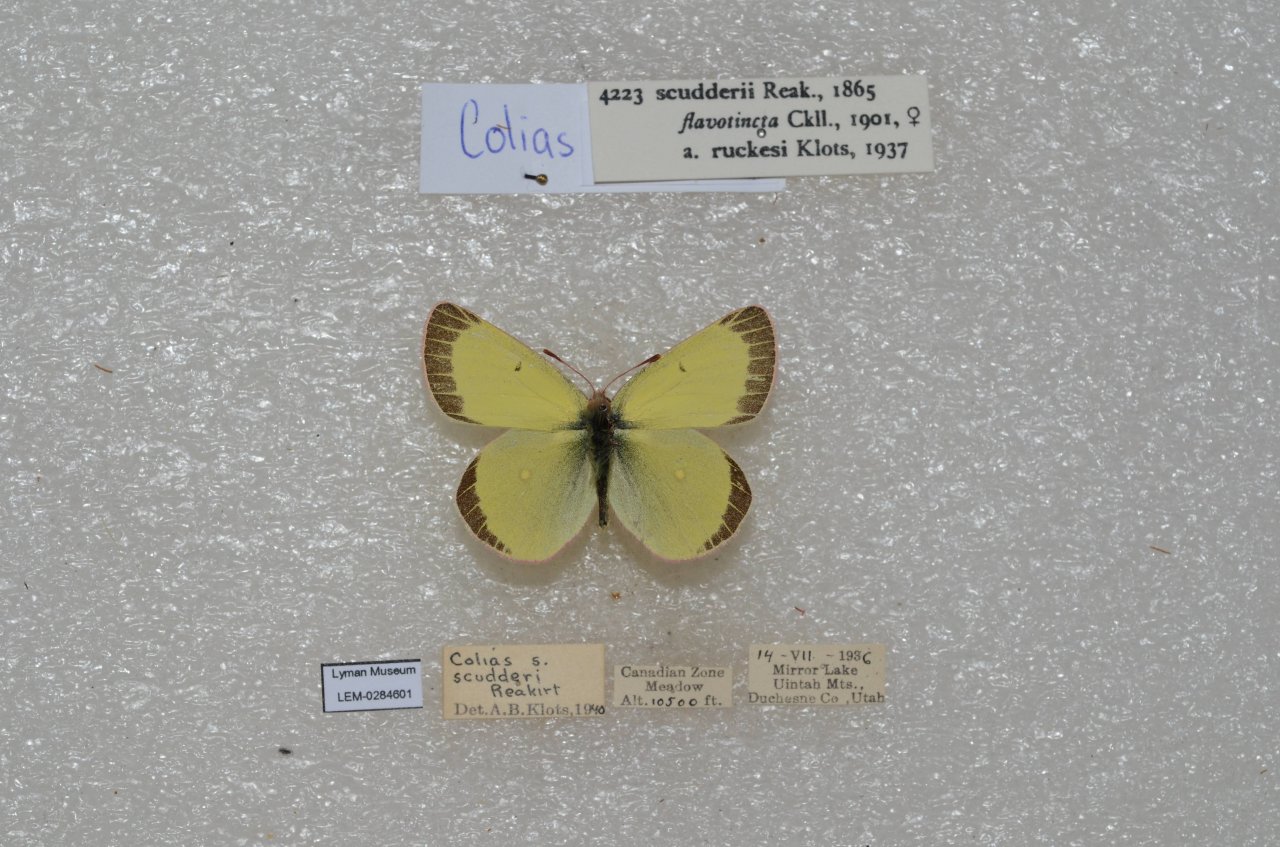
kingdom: Animalia
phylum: Arthropoda
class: Insecta
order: Lepidoptera
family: Pieridae
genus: Colias
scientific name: Colias scudderi
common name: Scudder's Sulphur
